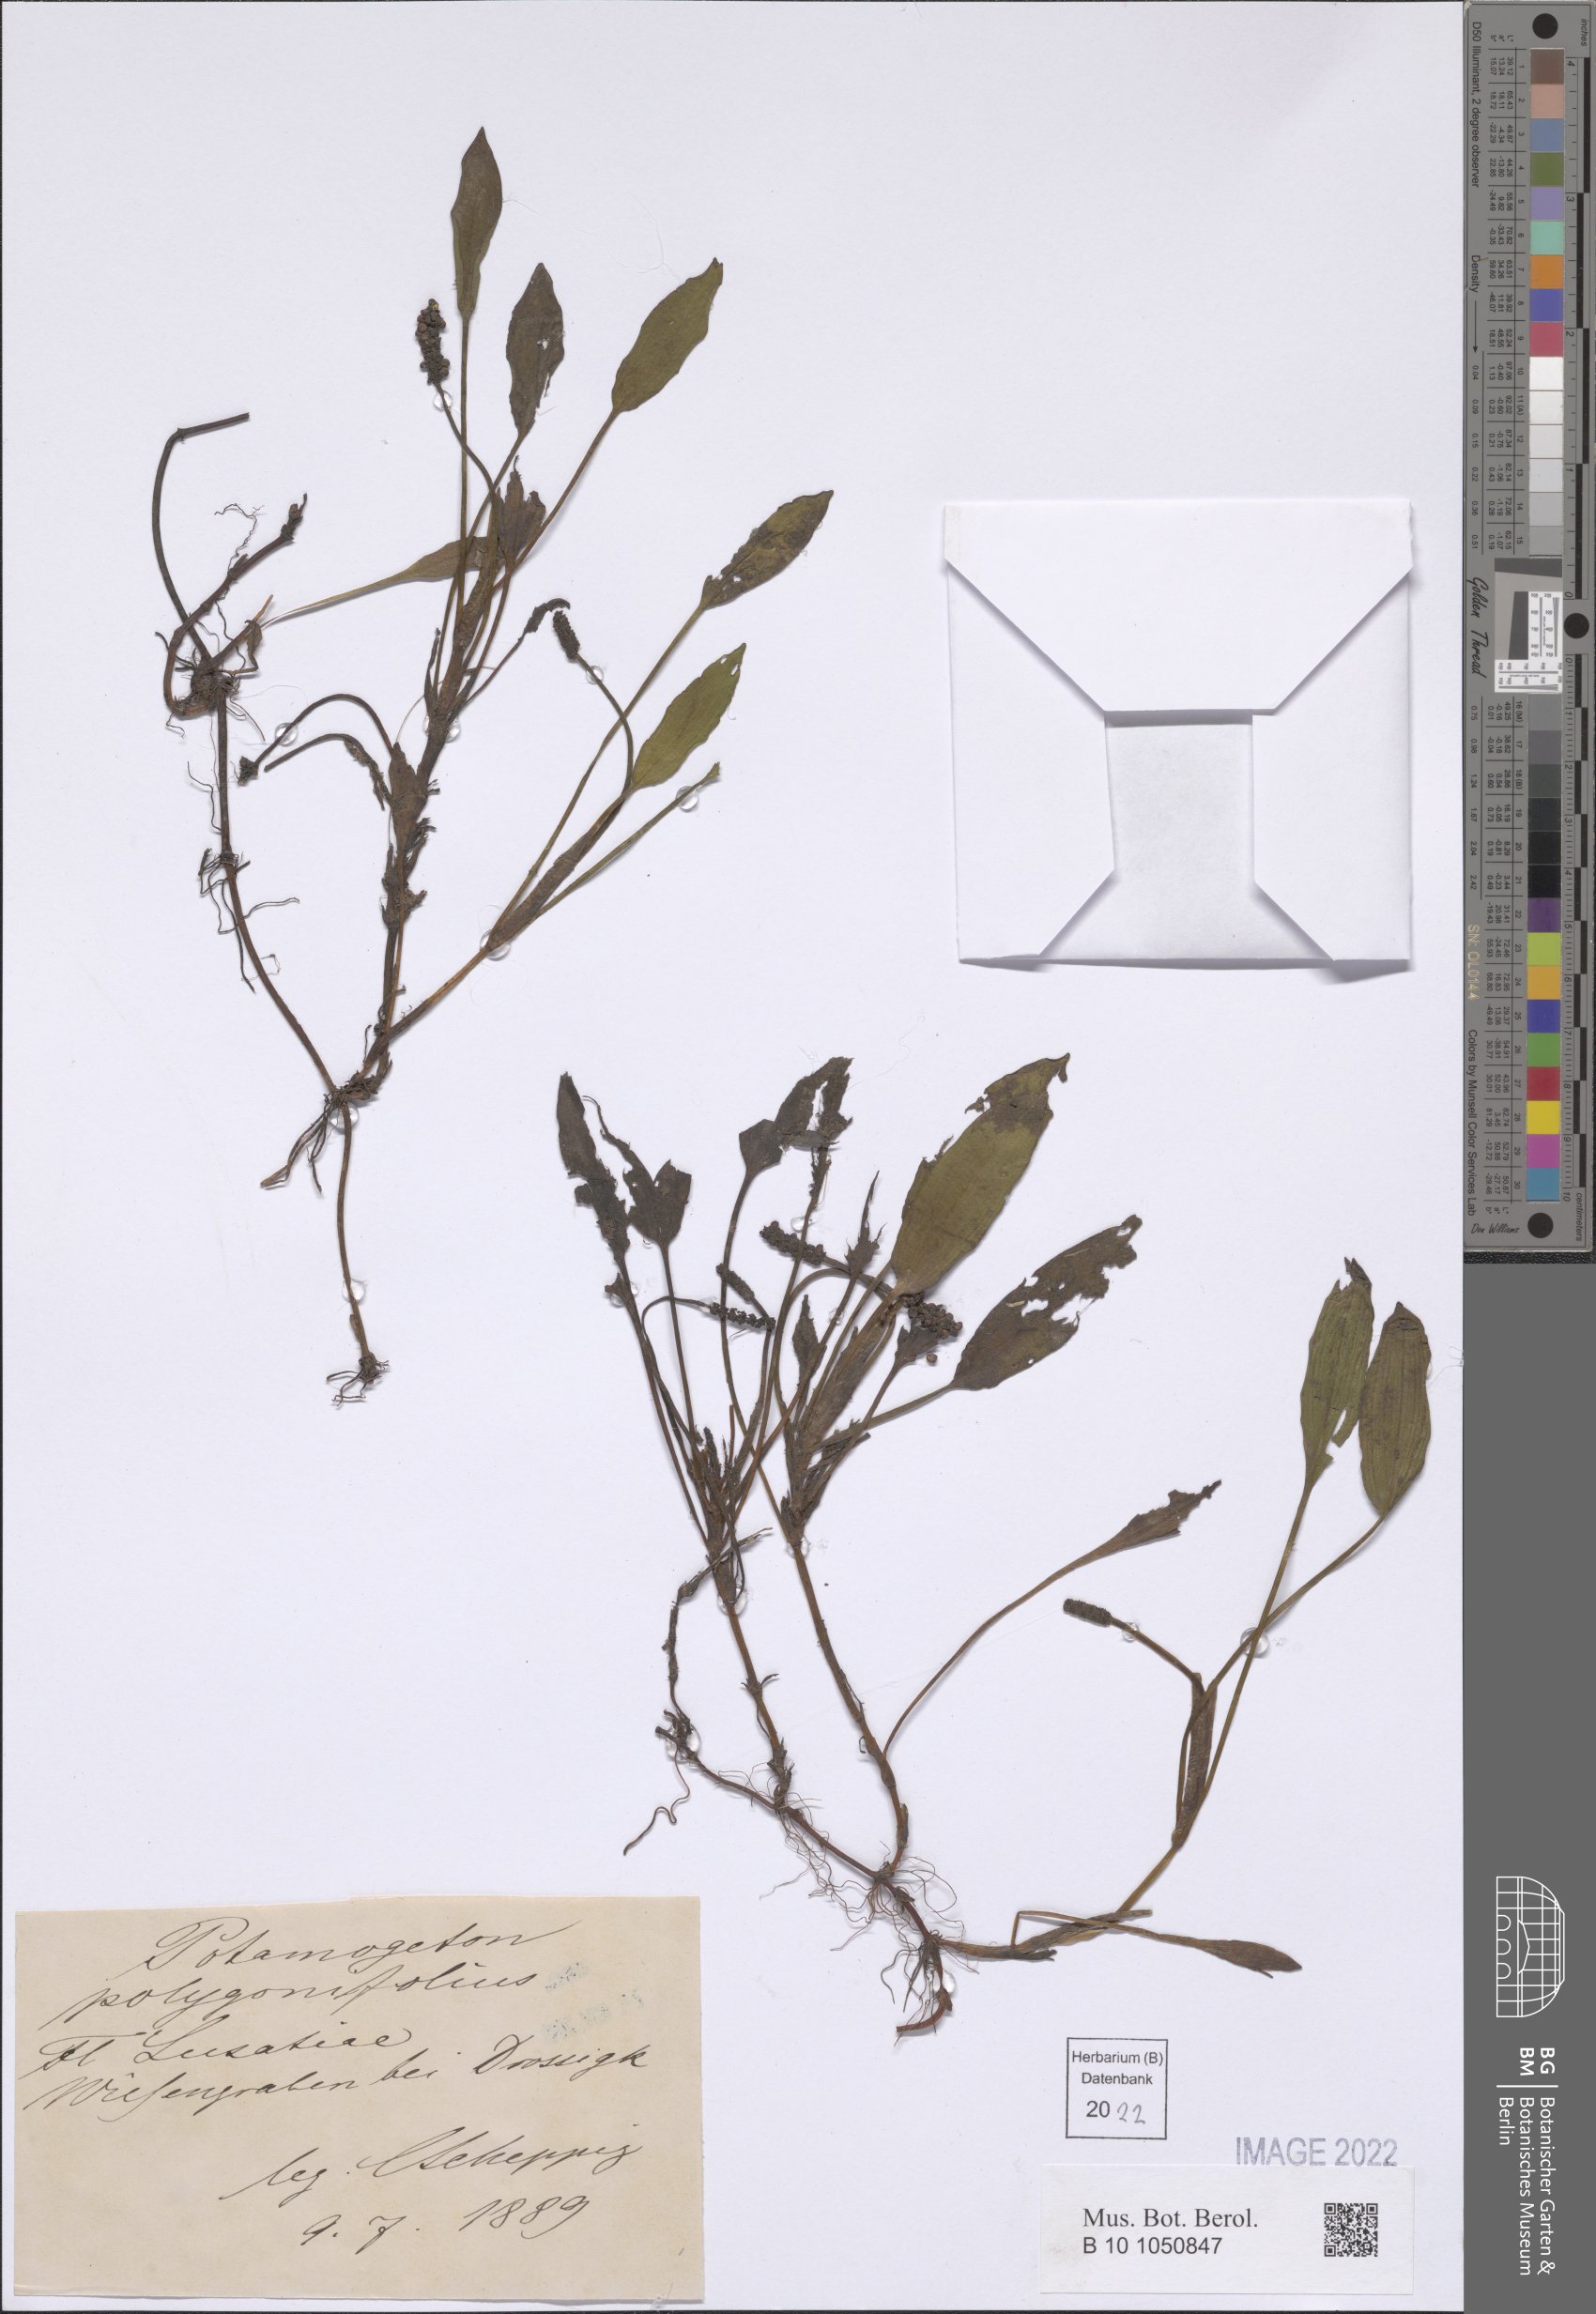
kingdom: Plantae
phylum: Tracheophyta
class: Liliopsida
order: Alismatales
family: Potamogetonaceae
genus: Potamogeton
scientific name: Potamogeton polygonifolius
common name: Bog pondweed
